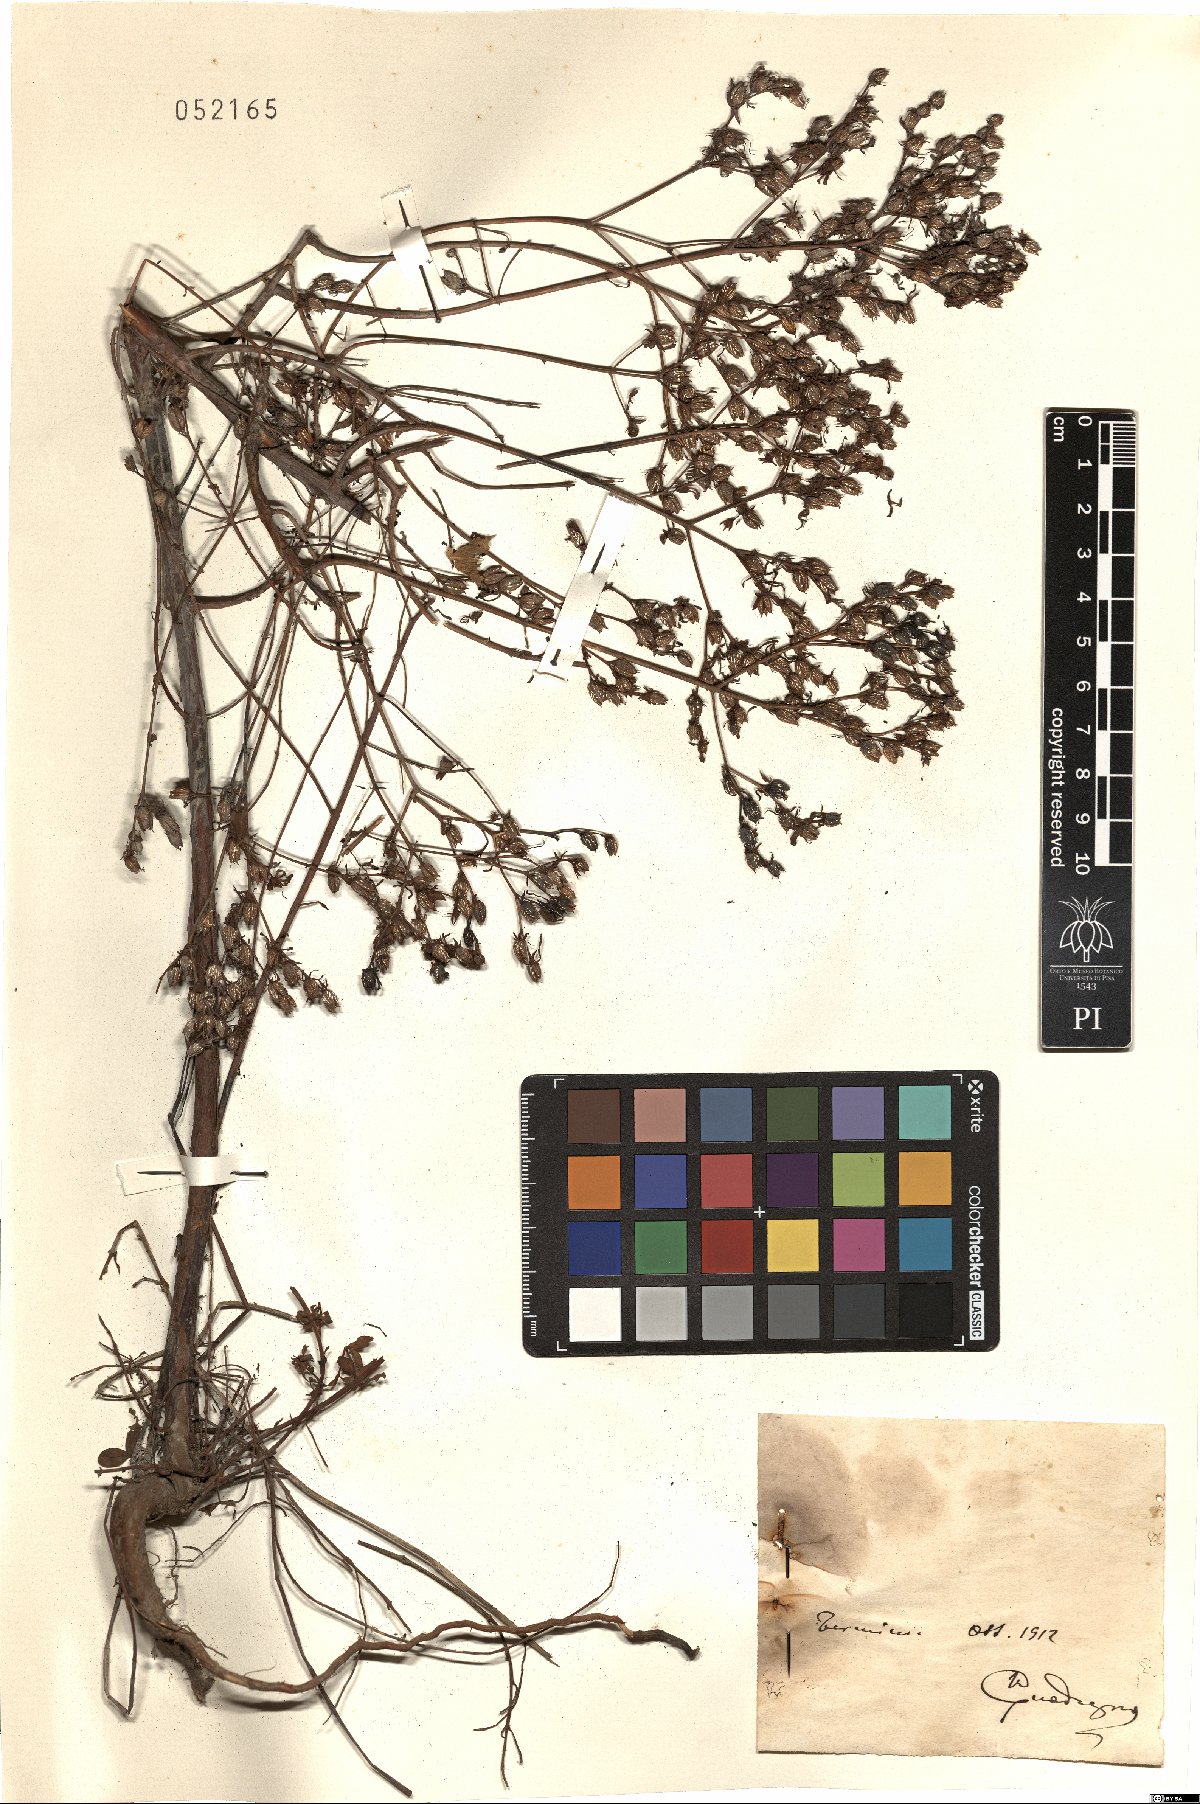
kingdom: Plantae
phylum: Tracheophyta
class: Magnoliopsida
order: Malpighiales
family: Hypericaceae
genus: Hypericum
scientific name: Hypericum
